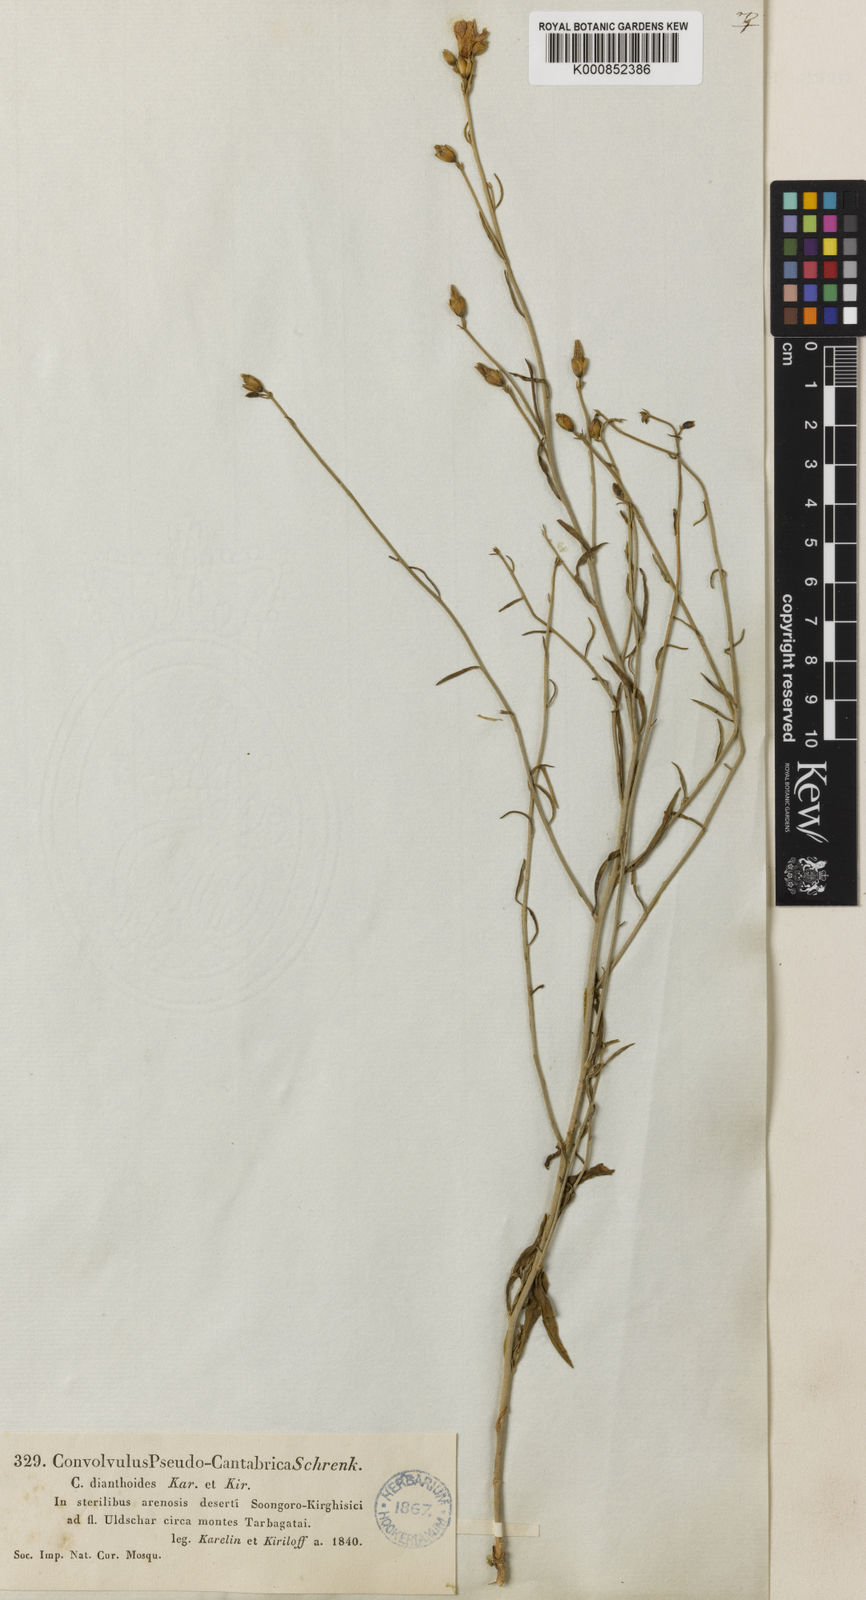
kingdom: Plantae
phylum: Tracheophyta
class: Magnoliopsida
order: Solanales
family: Convolvulaceae
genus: Convolvulus
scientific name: Convolvulus
